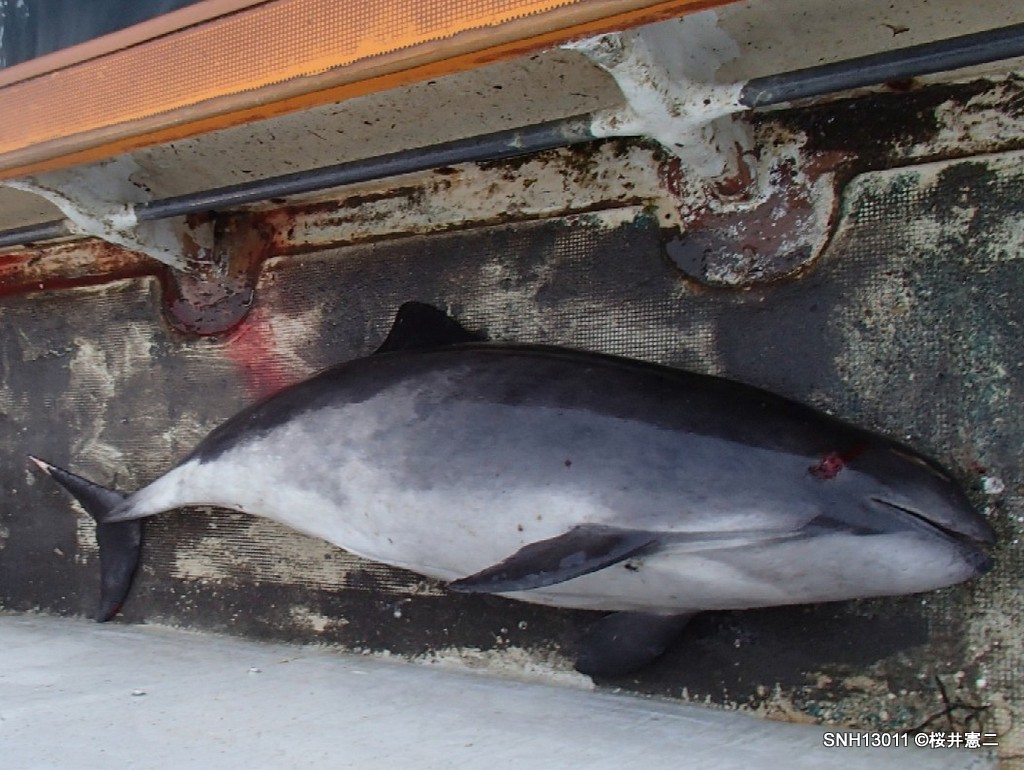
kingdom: Animalia
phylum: Chordata
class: Mammalia
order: Cetacea
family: Phocoenidae
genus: Phocoena
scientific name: Phocoena phocoena
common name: Harbour porpoise
